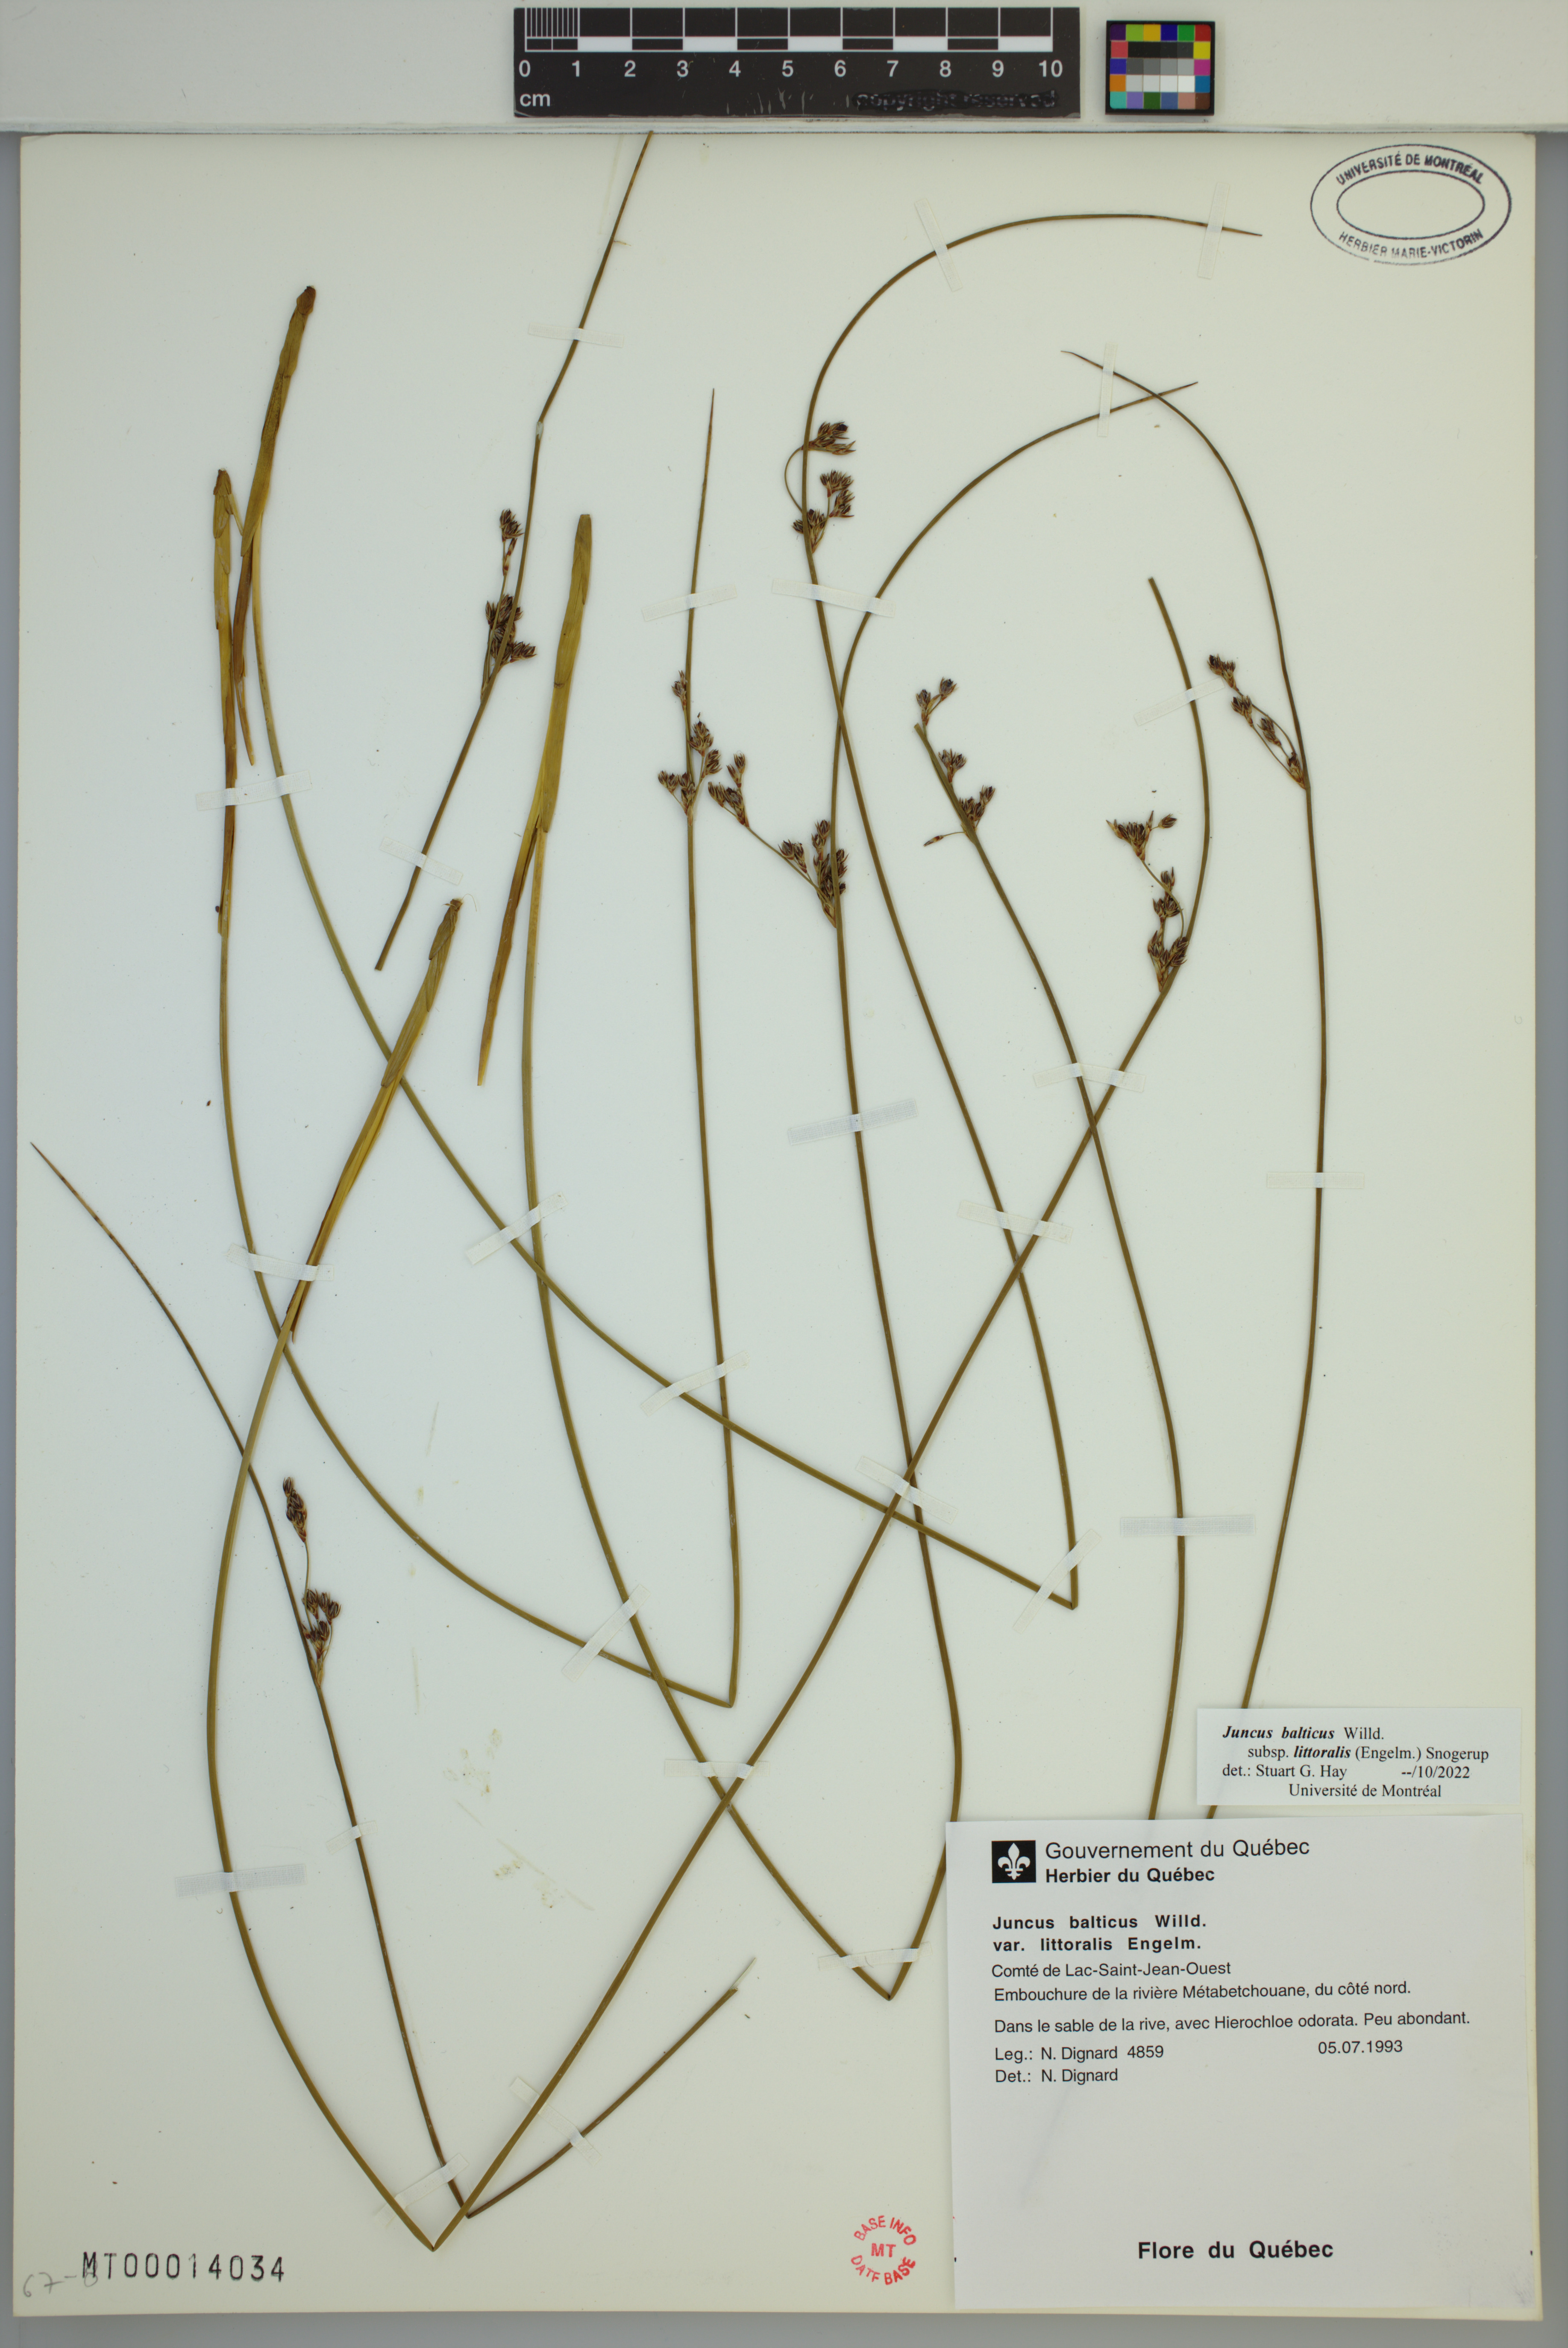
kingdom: Plantae
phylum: Tracheophyta
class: Liliopsida
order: Poales
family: Juncaceae
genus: Juncus
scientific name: Juncus balticus
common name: Baltic rush
